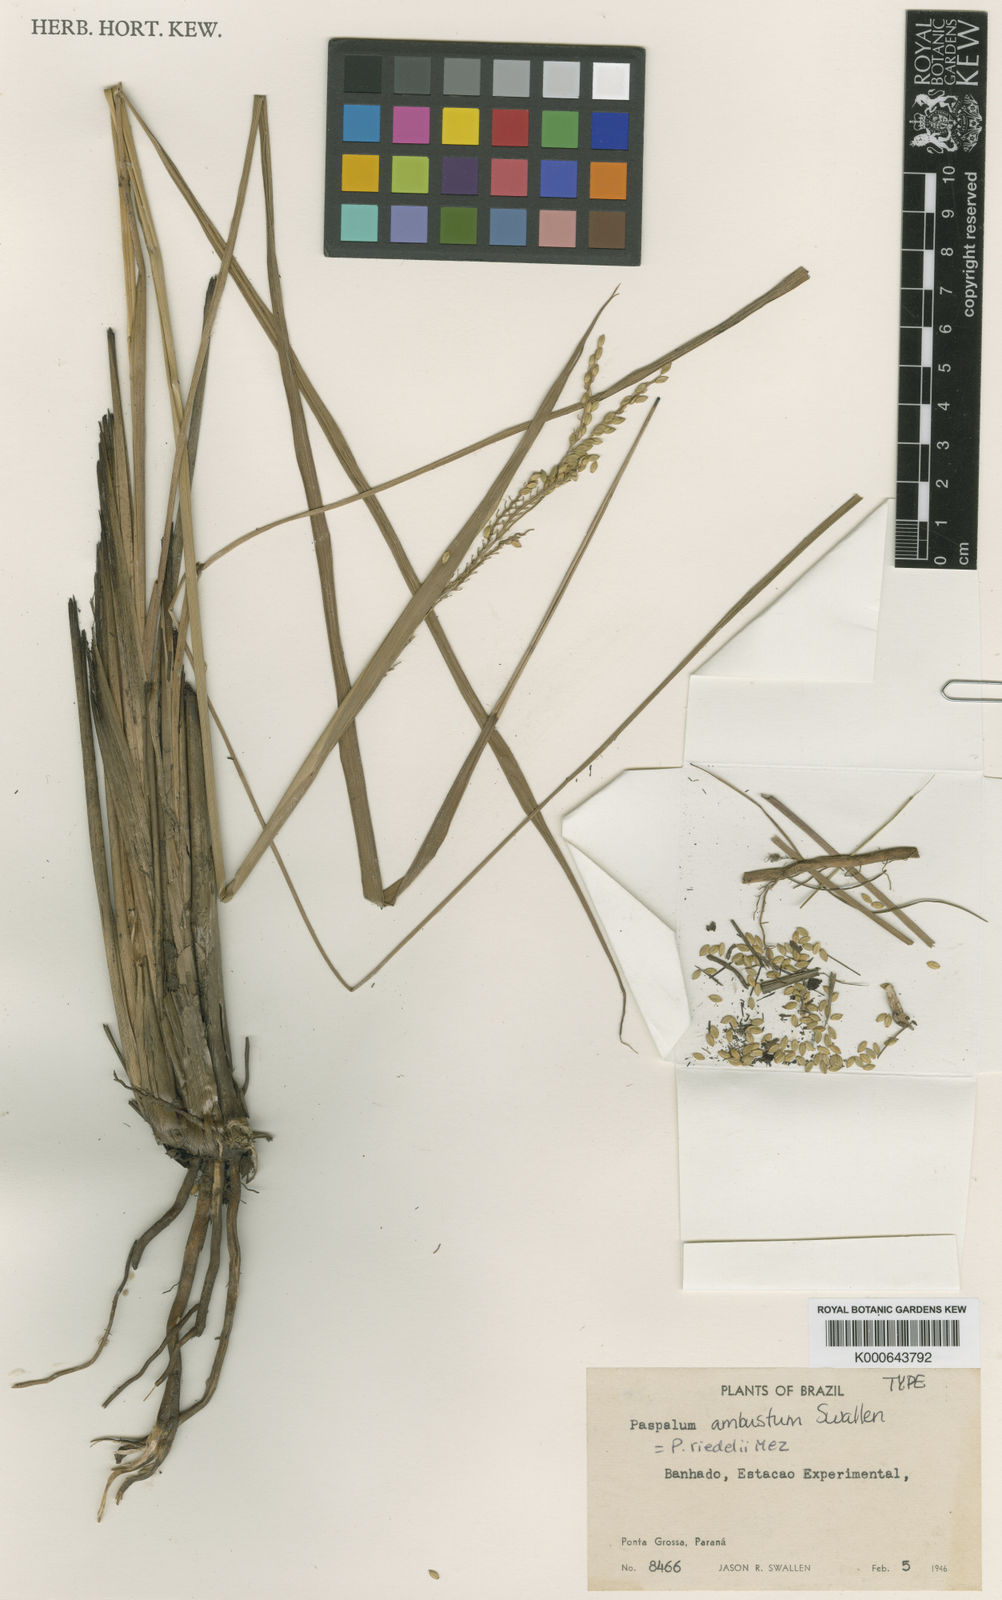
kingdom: Plantae
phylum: Tracheophyta
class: Liliopsida
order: Poales
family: Poaceae
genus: Paspalum
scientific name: Paspalum riedelii
